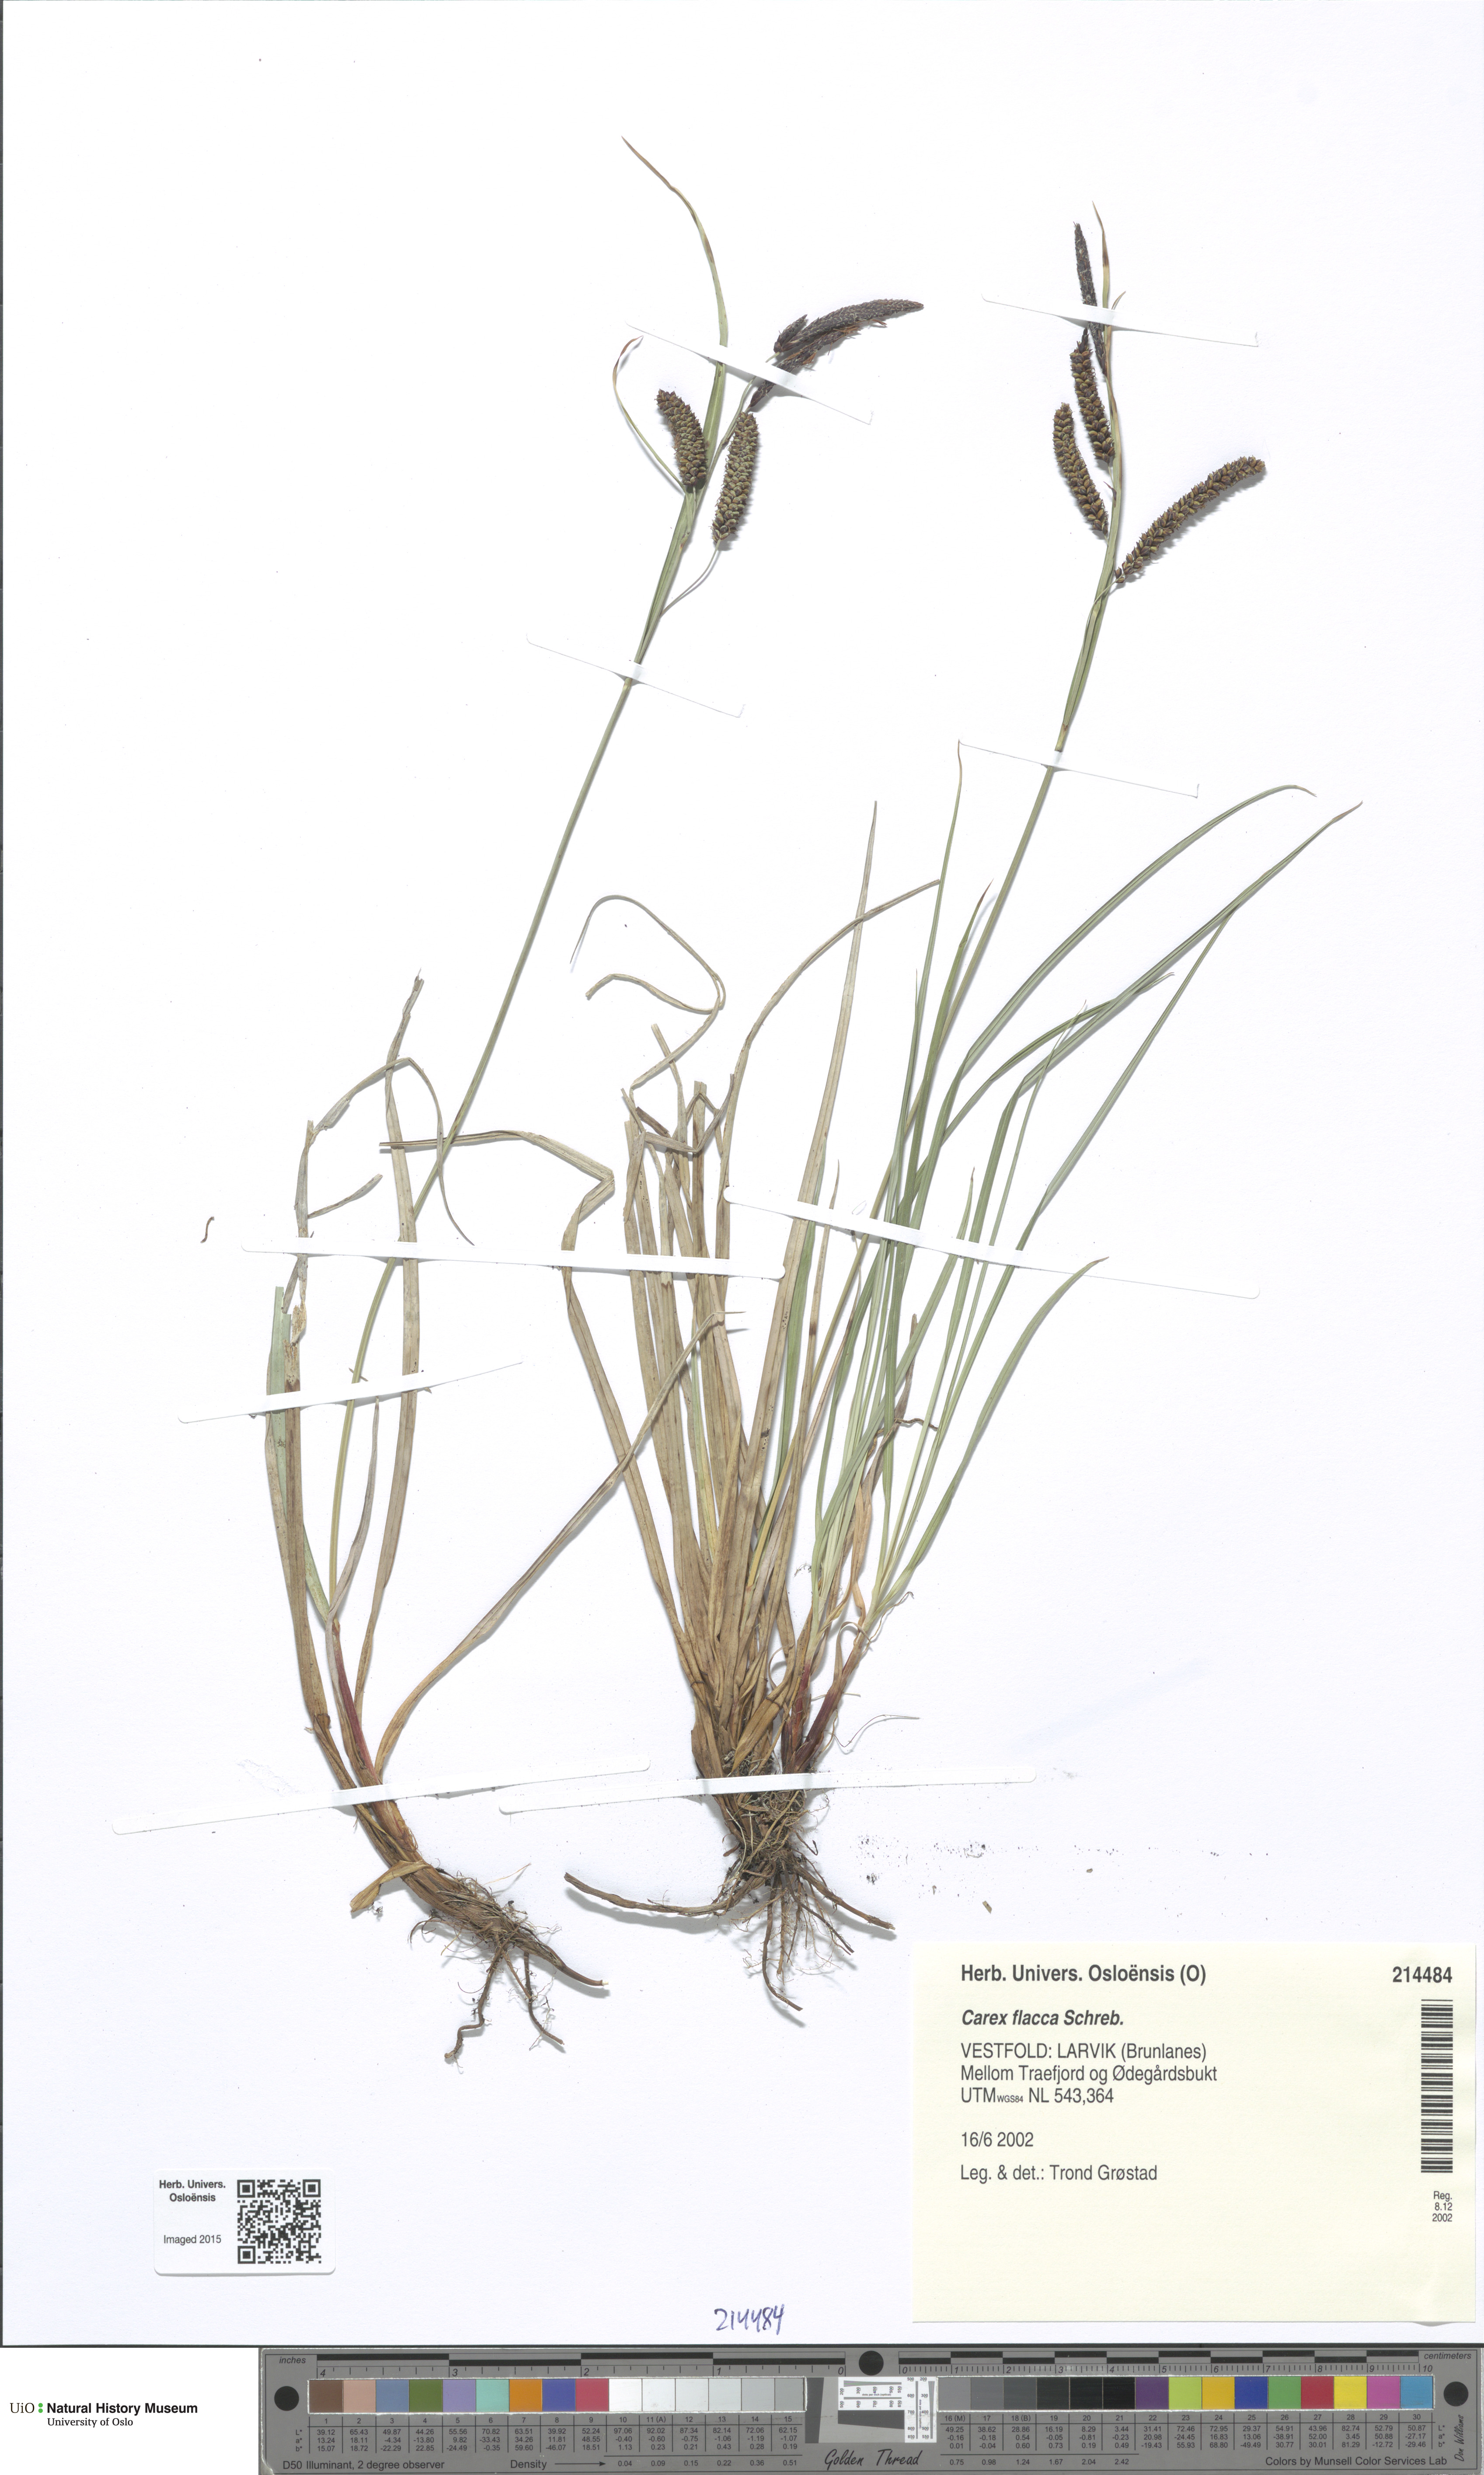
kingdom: Plantae
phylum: Tracheophyta
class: Liliopsida
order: Poales
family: Cyperaceae
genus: Carex
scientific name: Carex flacca
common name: Glaucous sedge
